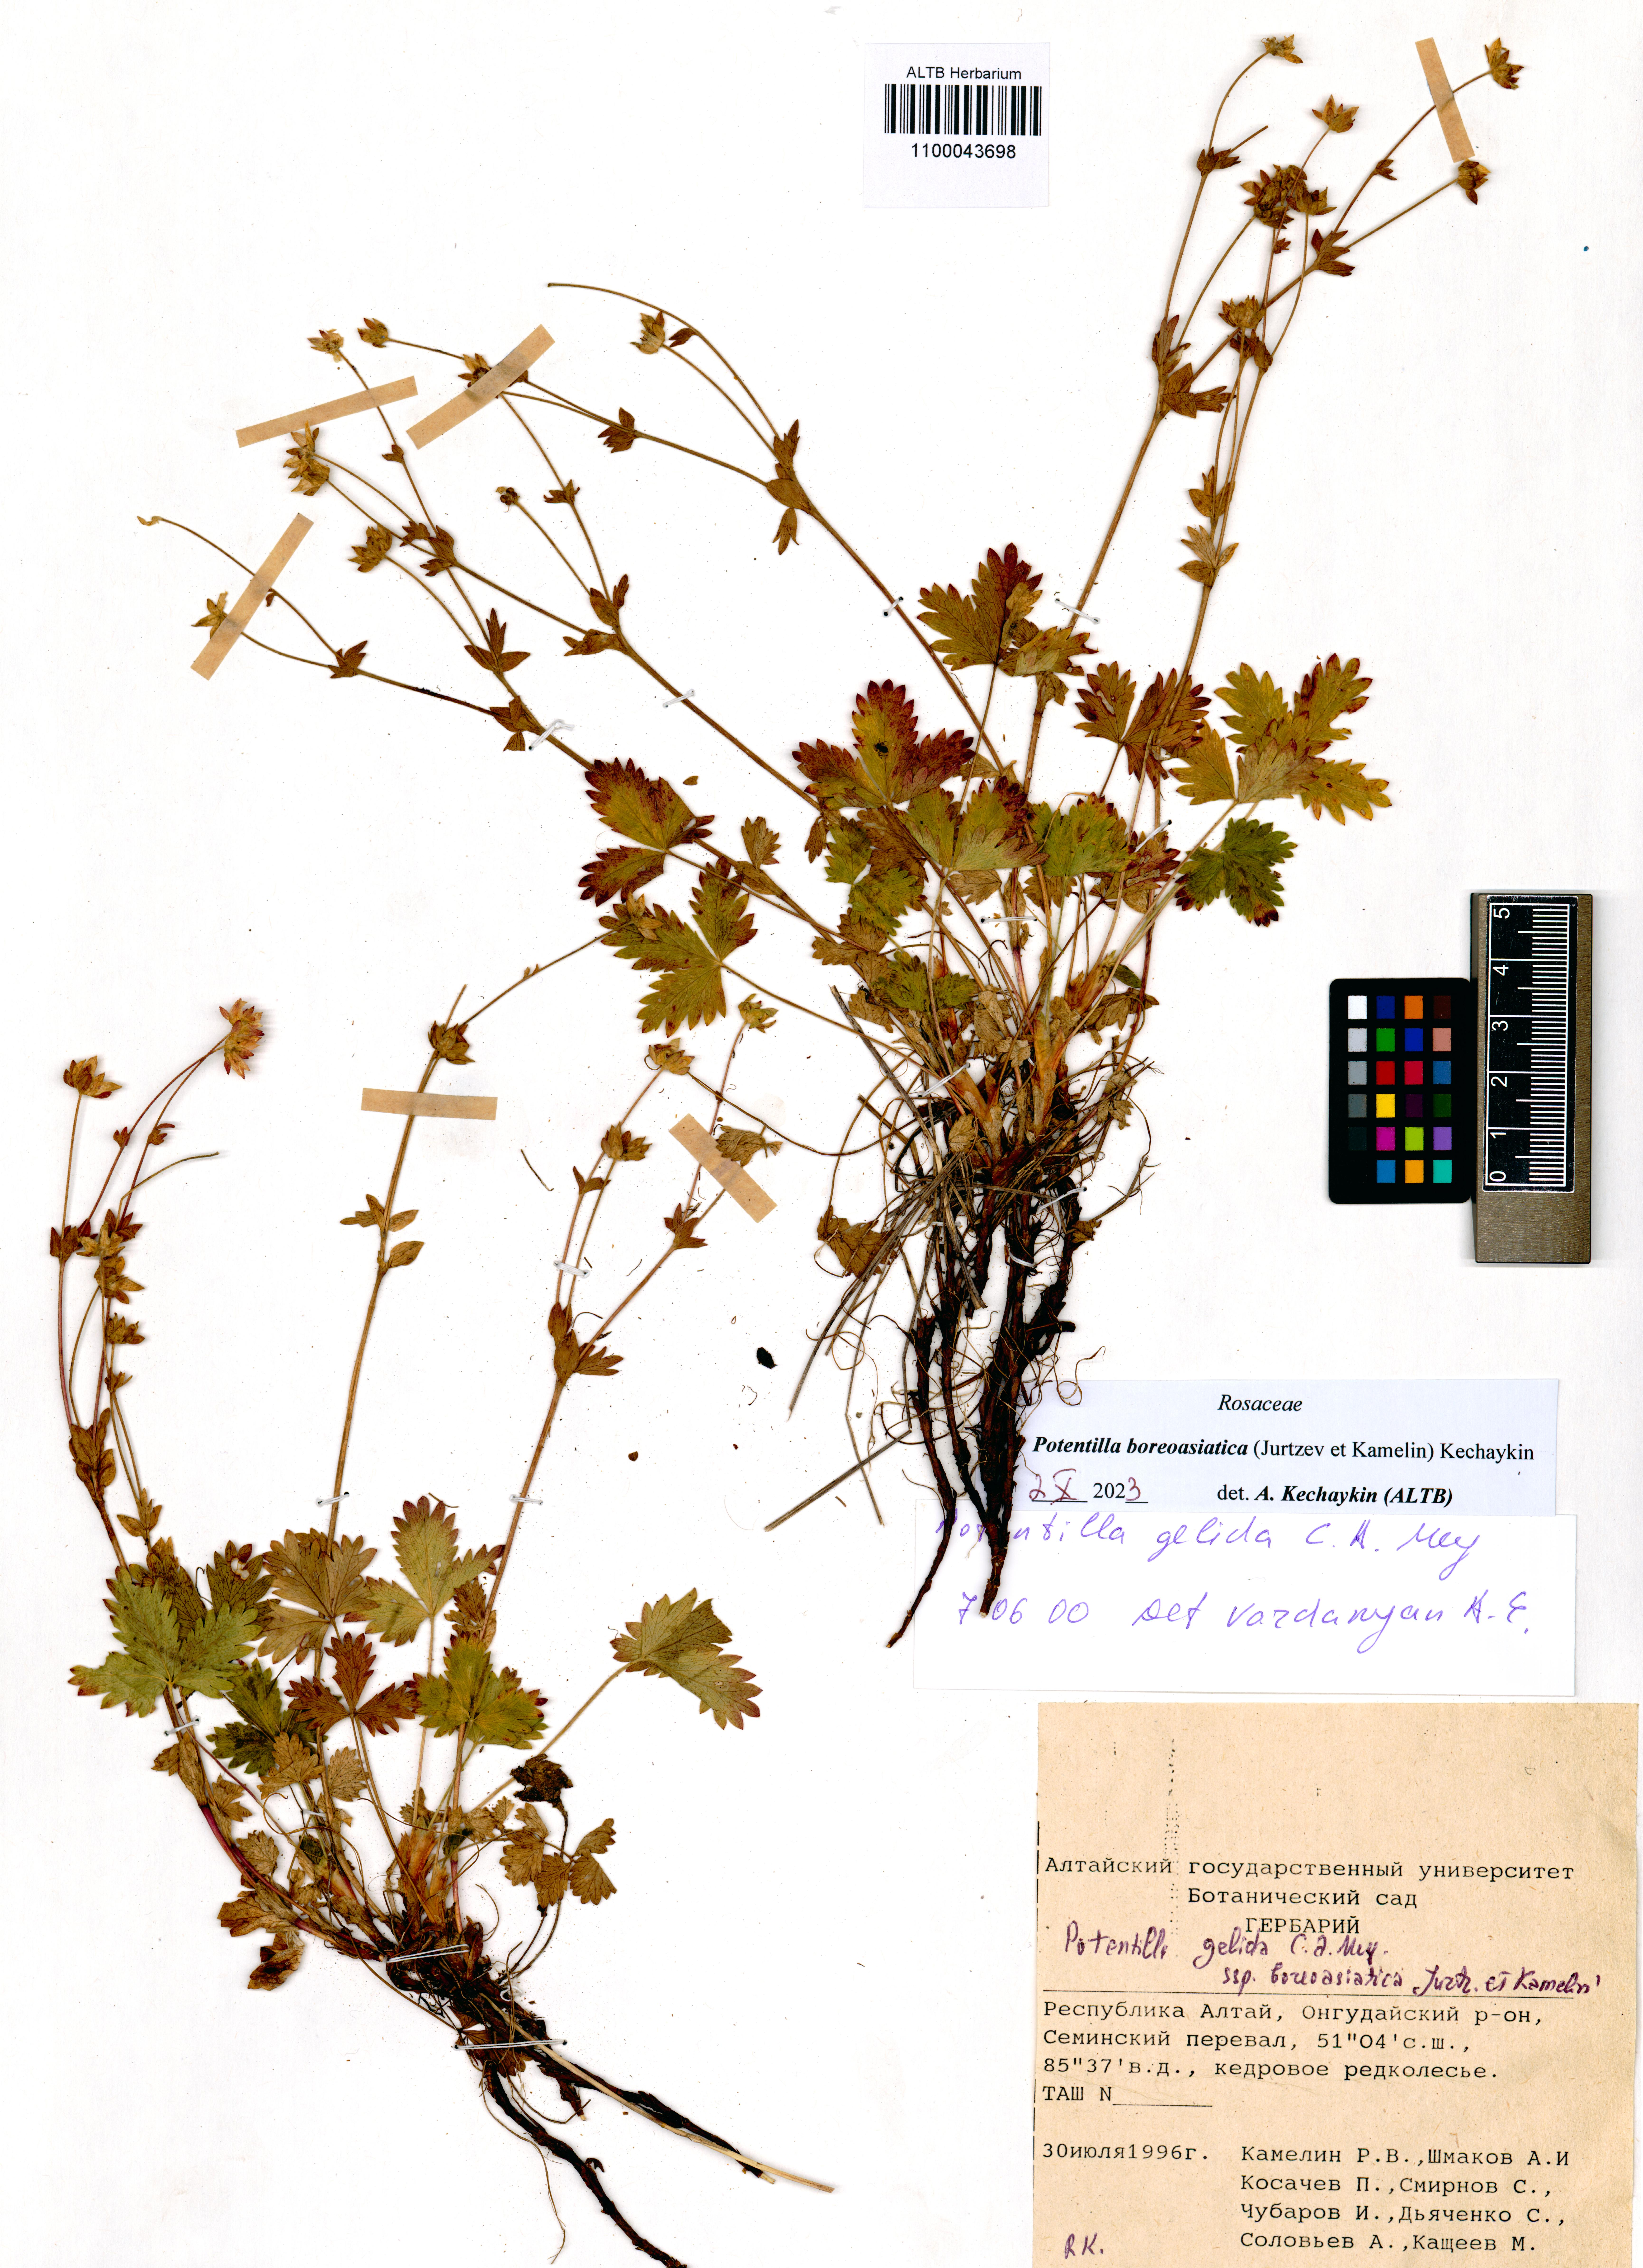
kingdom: Plantae
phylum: Tracheophyta
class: Magnoliopsida
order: Rosales
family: Rosaceae
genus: Potentilla
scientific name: Potentilla
